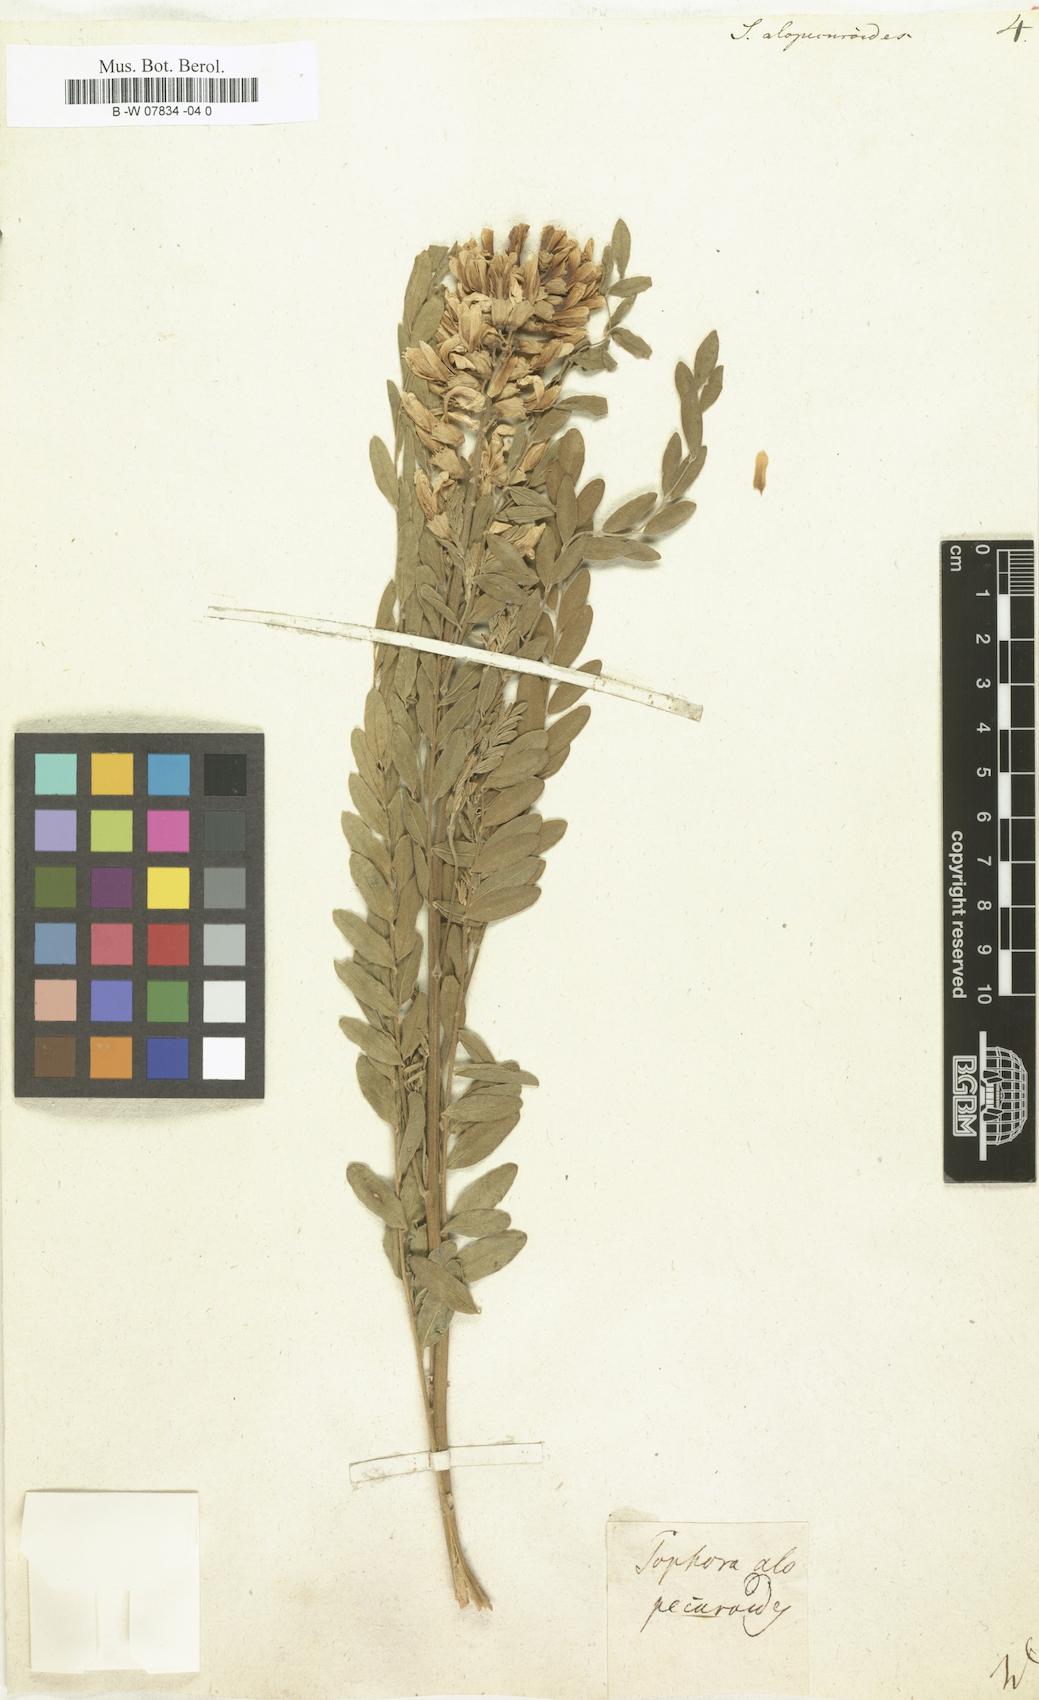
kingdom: Plantae
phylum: Tracheophyta
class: Magnoliopsida
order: Fabales
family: Fabaceae
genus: Sophora
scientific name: Sophora alopecuroides
